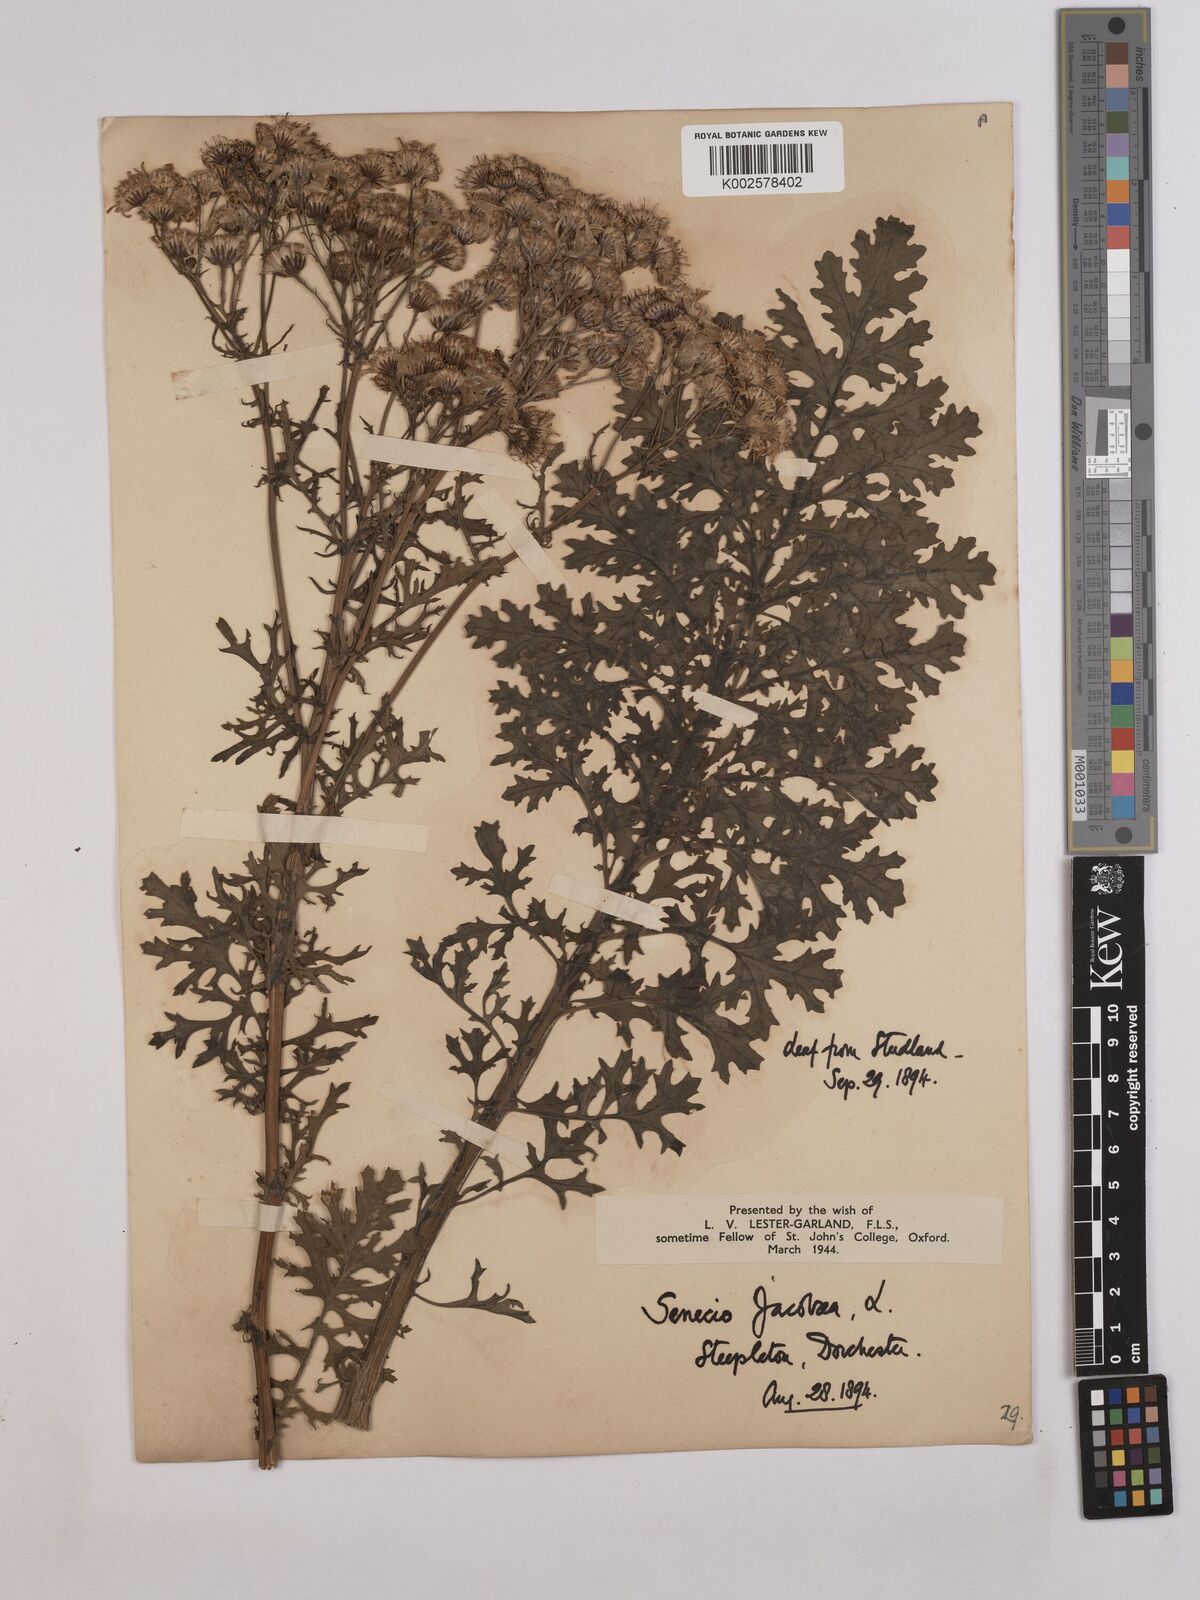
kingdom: Plantae
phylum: Tracheophyta
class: Magnoliopsida
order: Asterales
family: Asteraceae
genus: Jacobaea
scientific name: Jacobaea vulgaris
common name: Stinking willie
